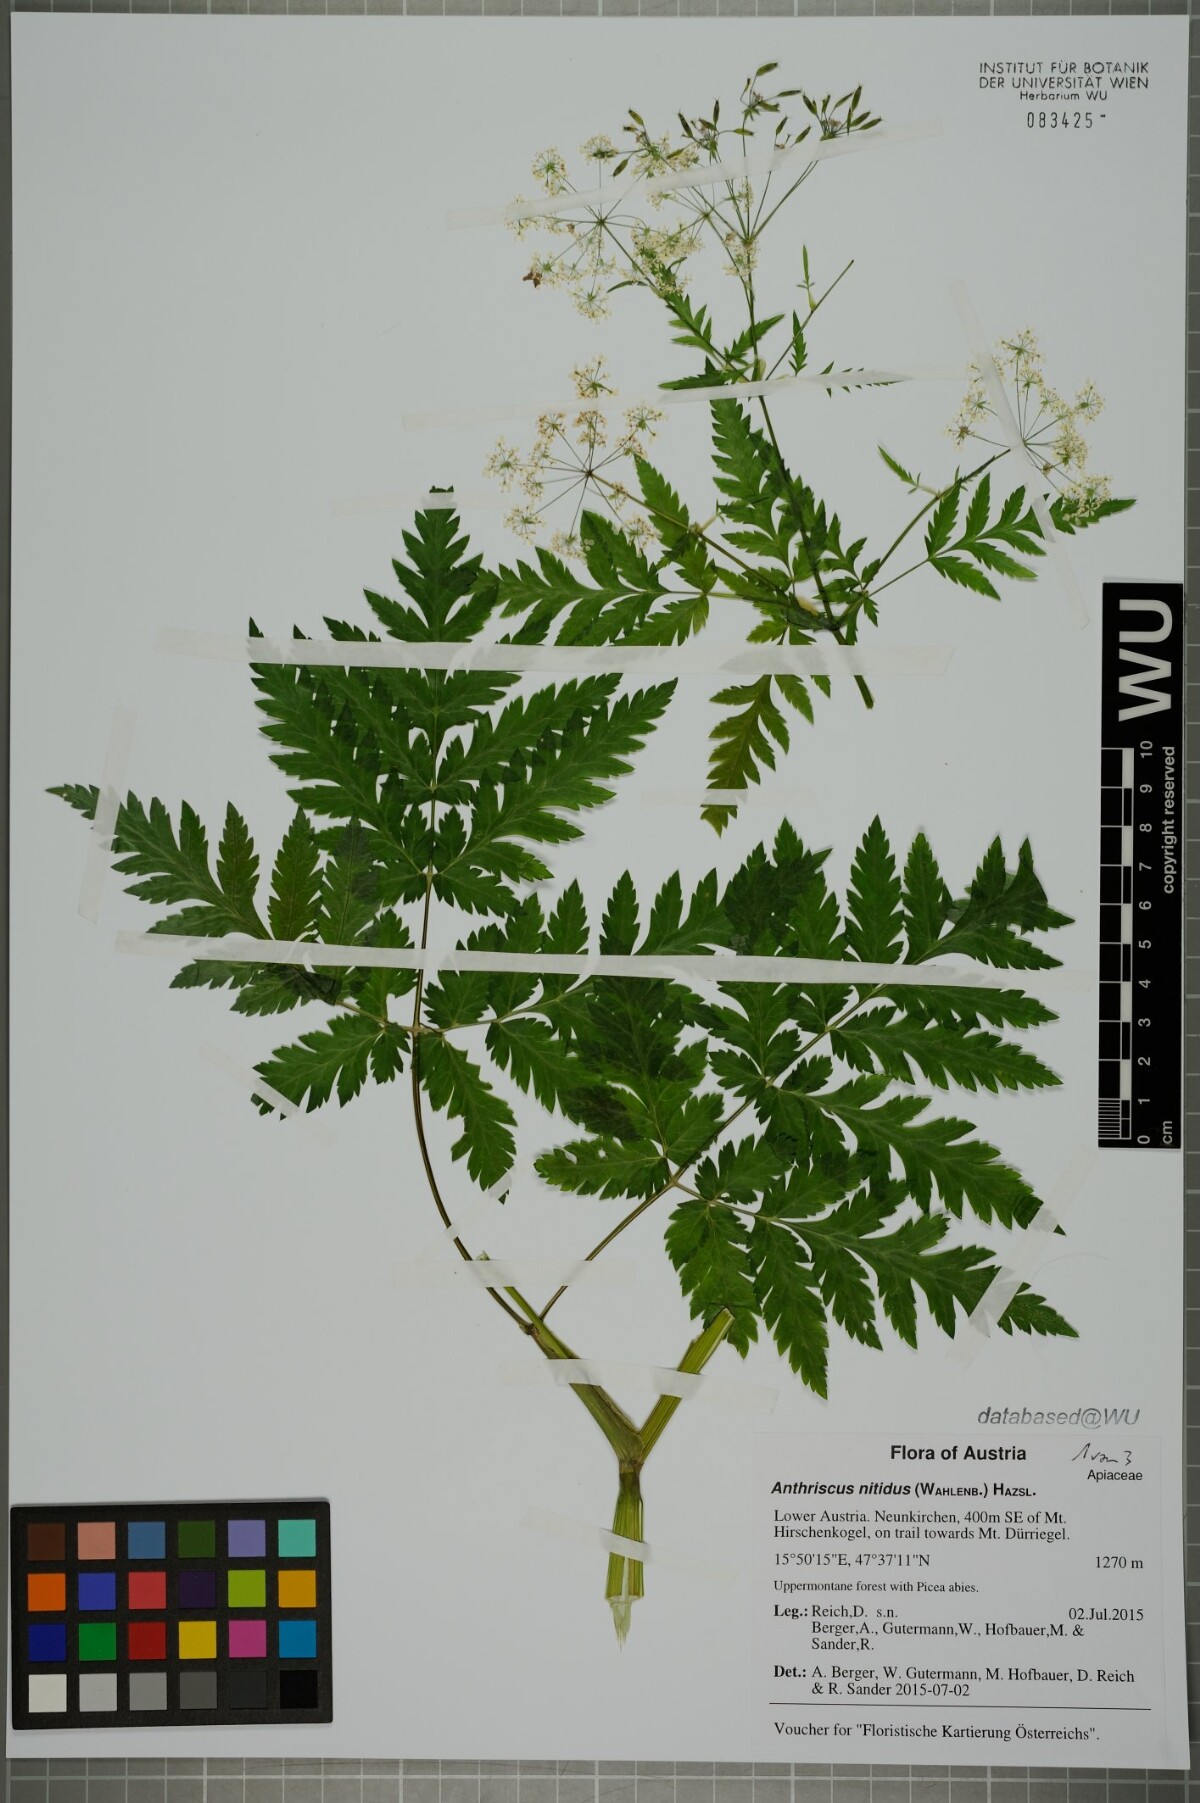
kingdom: Plantae
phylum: Tracheophyta
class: Magnoliopsida
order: Apiales
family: Apiaceae
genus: Anthriscus
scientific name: Anthriscus nitida
